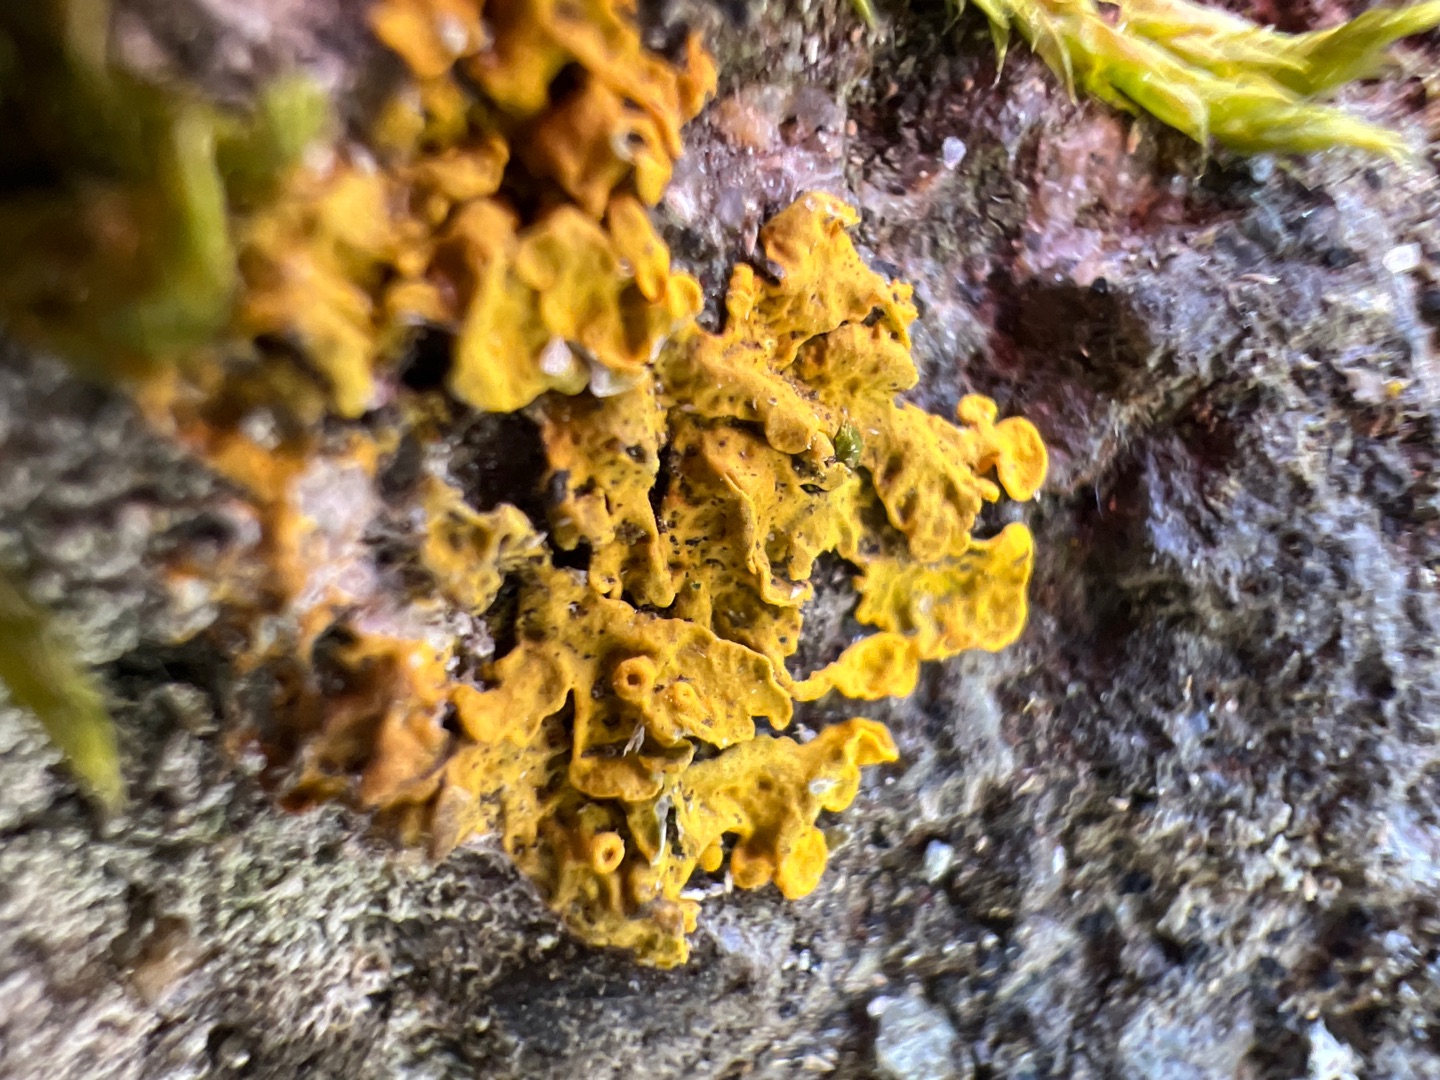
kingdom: Fungi
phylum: Ascomycota
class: Lecanoromycetes
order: Teloschistales
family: Teloschistaceae
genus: Xanthoria
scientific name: Xanthoria parietina
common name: Almindelig væggelav
